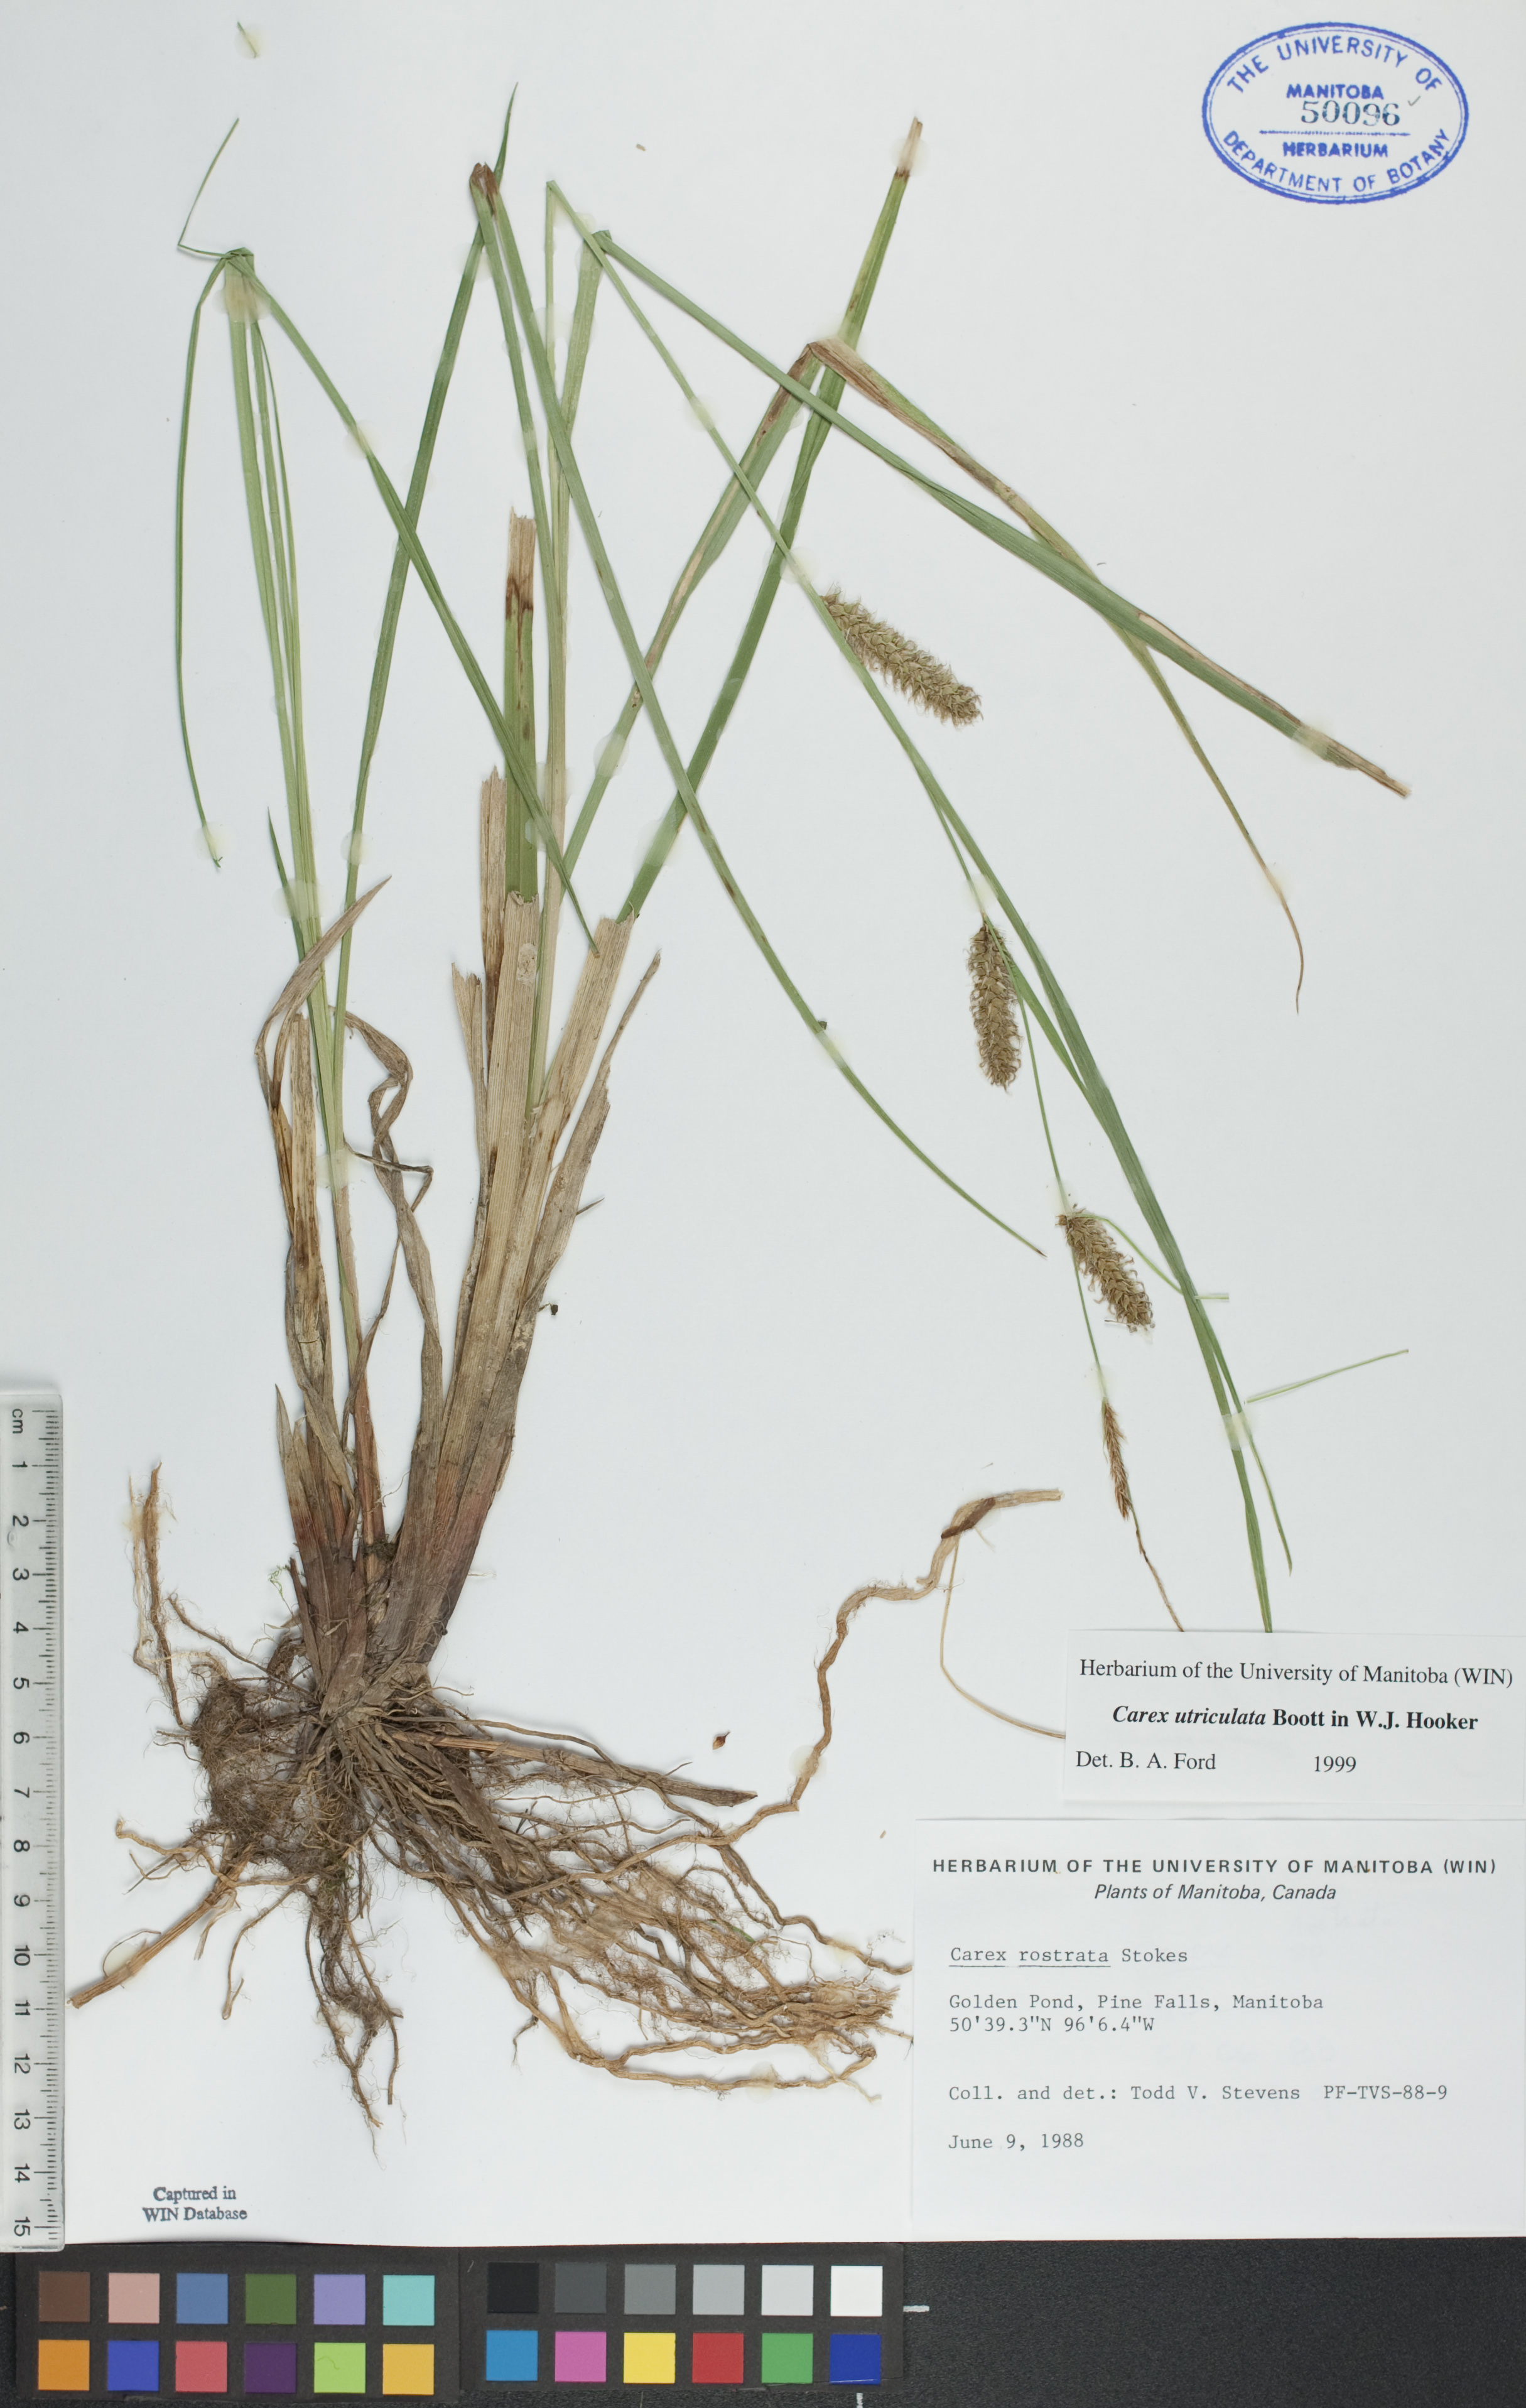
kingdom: Plantae
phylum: Tracheophyta
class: Liliopsida
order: Poales
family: Cyperaceae
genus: Carex
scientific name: Carex utriculata
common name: Beaked sedge
